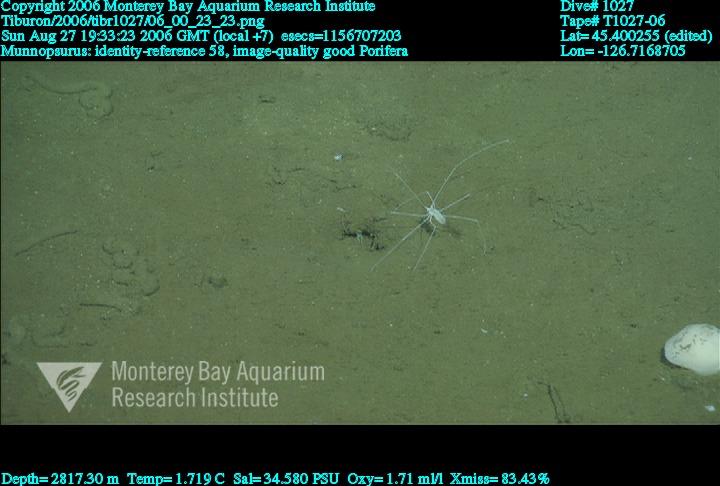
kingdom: Animalia
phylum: Porifera
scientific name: Porifera
